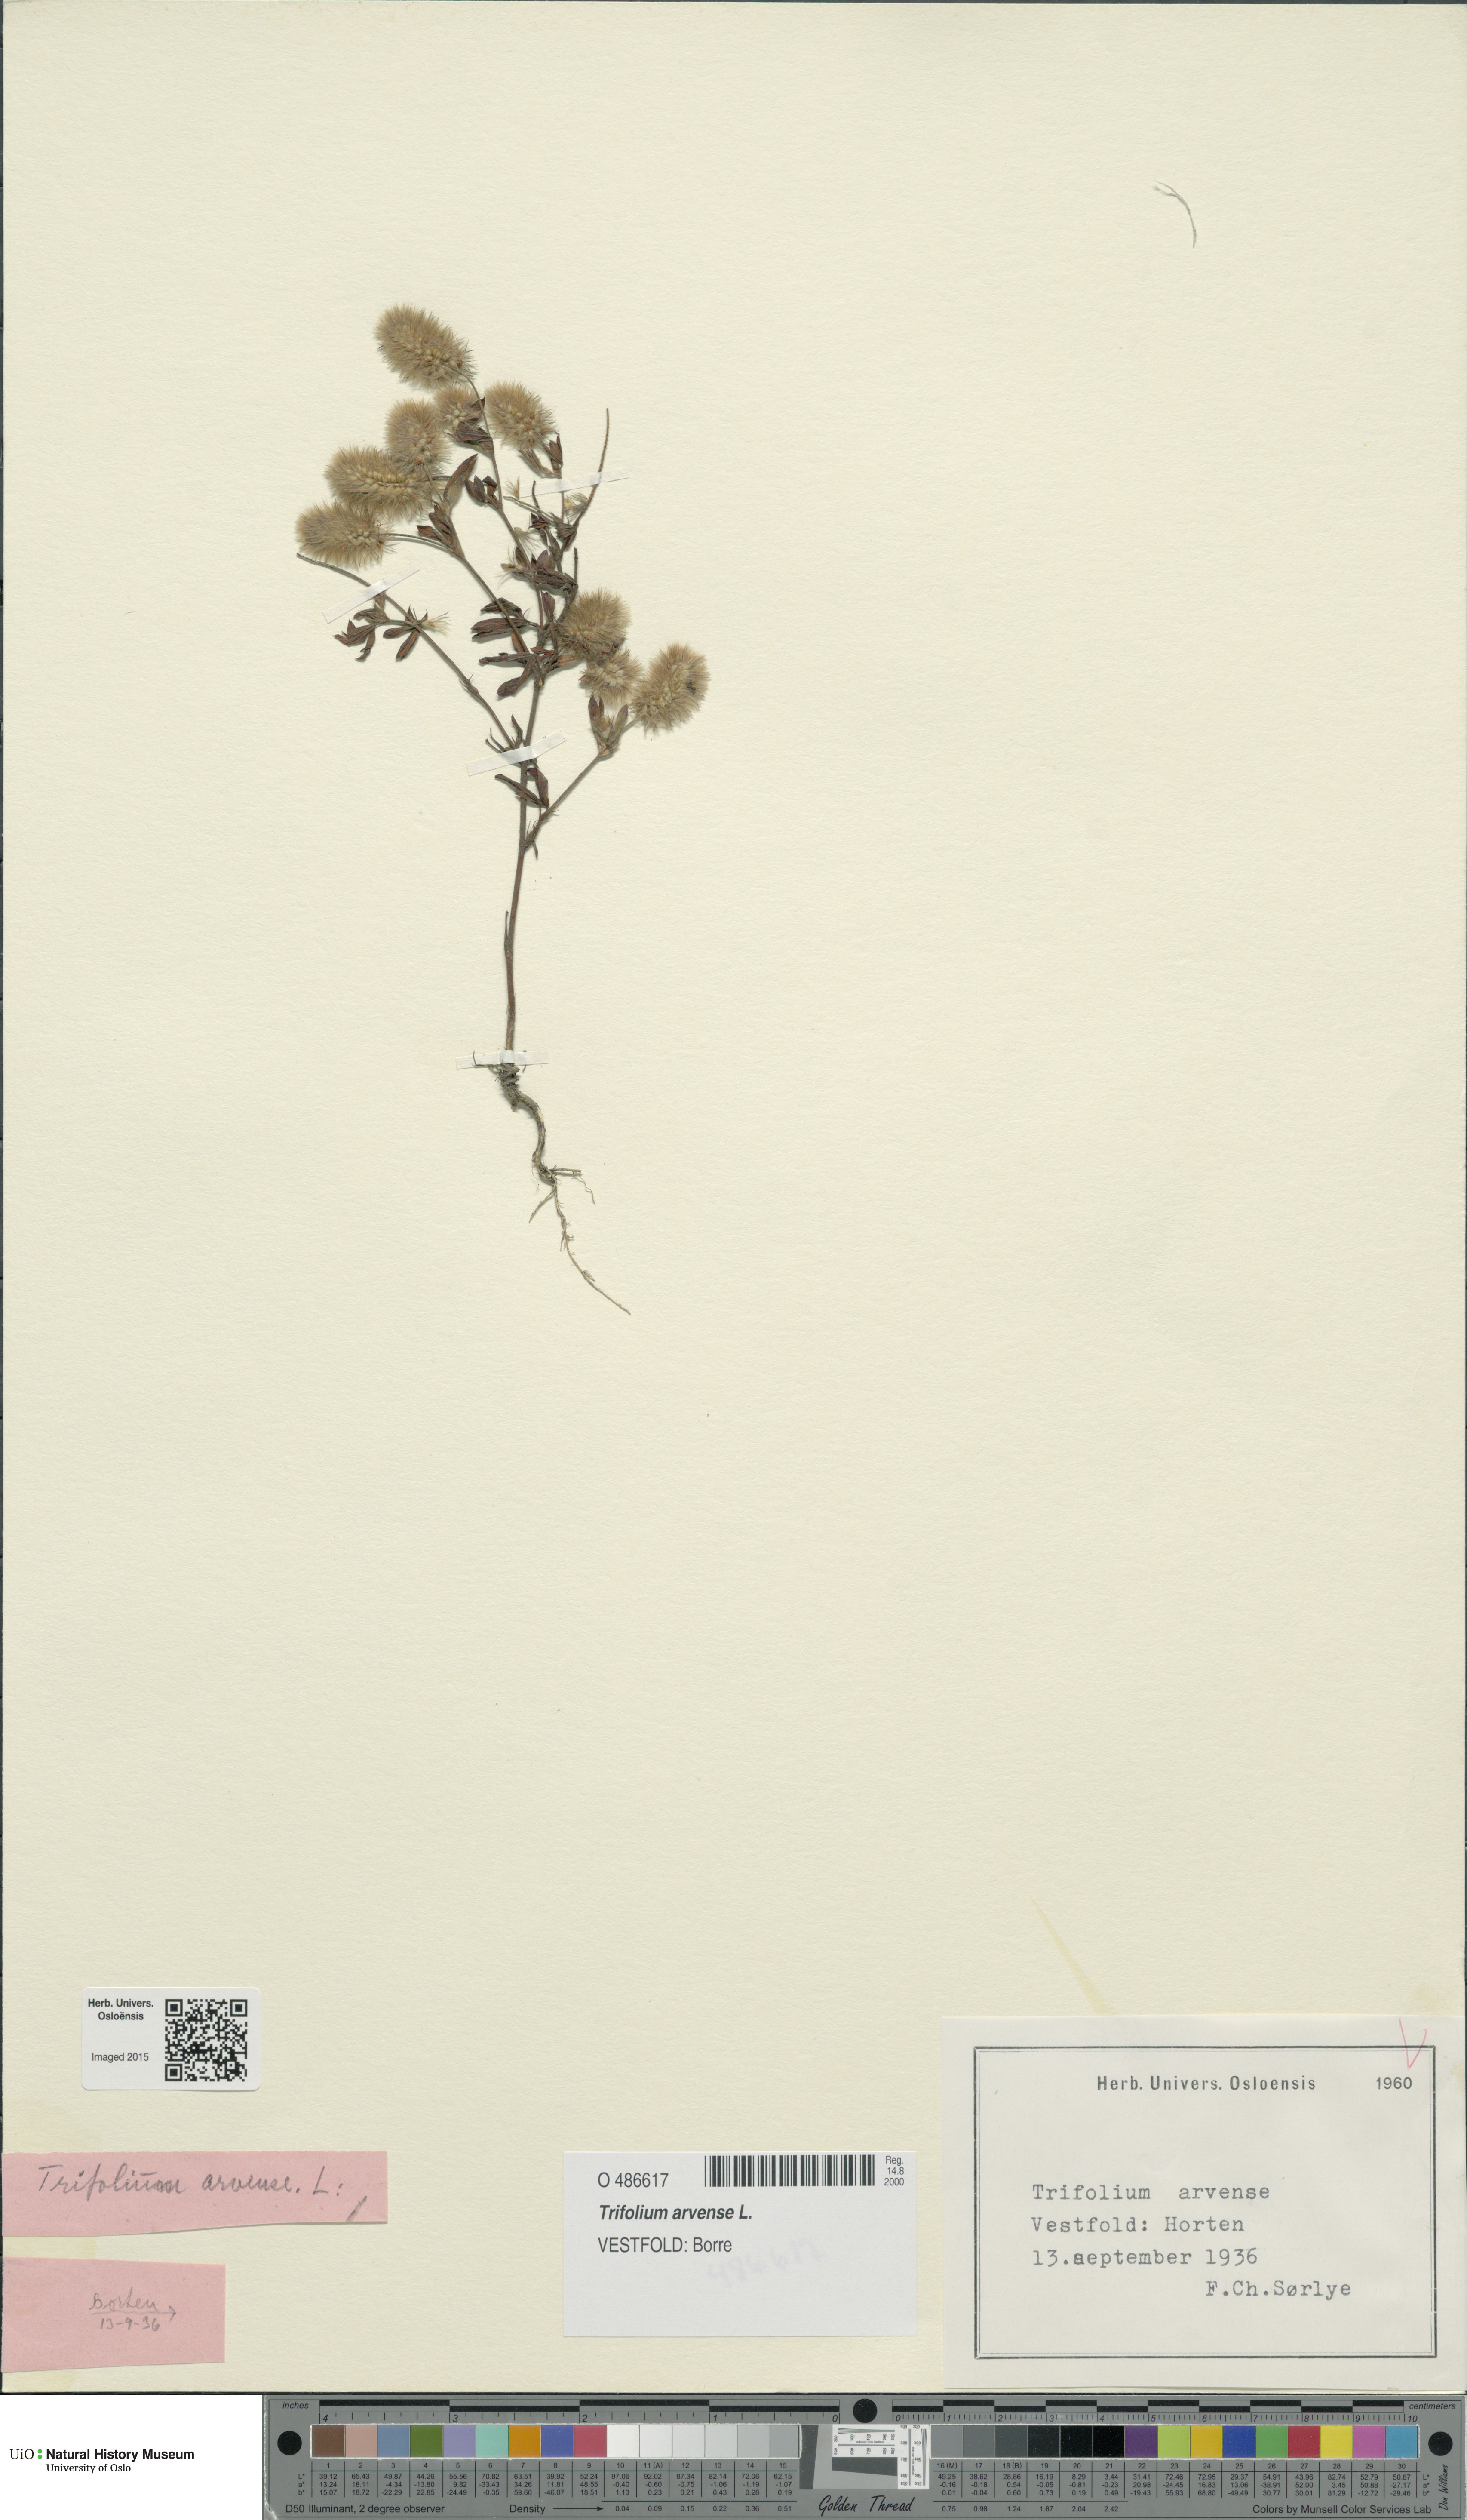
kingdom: Plantae
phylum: Tracheophyta
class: Magnoliopsida
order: Fabales
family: Fabaceae
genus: Trifolium
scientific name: Trifolium arvense
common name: Hare's-foot clover
